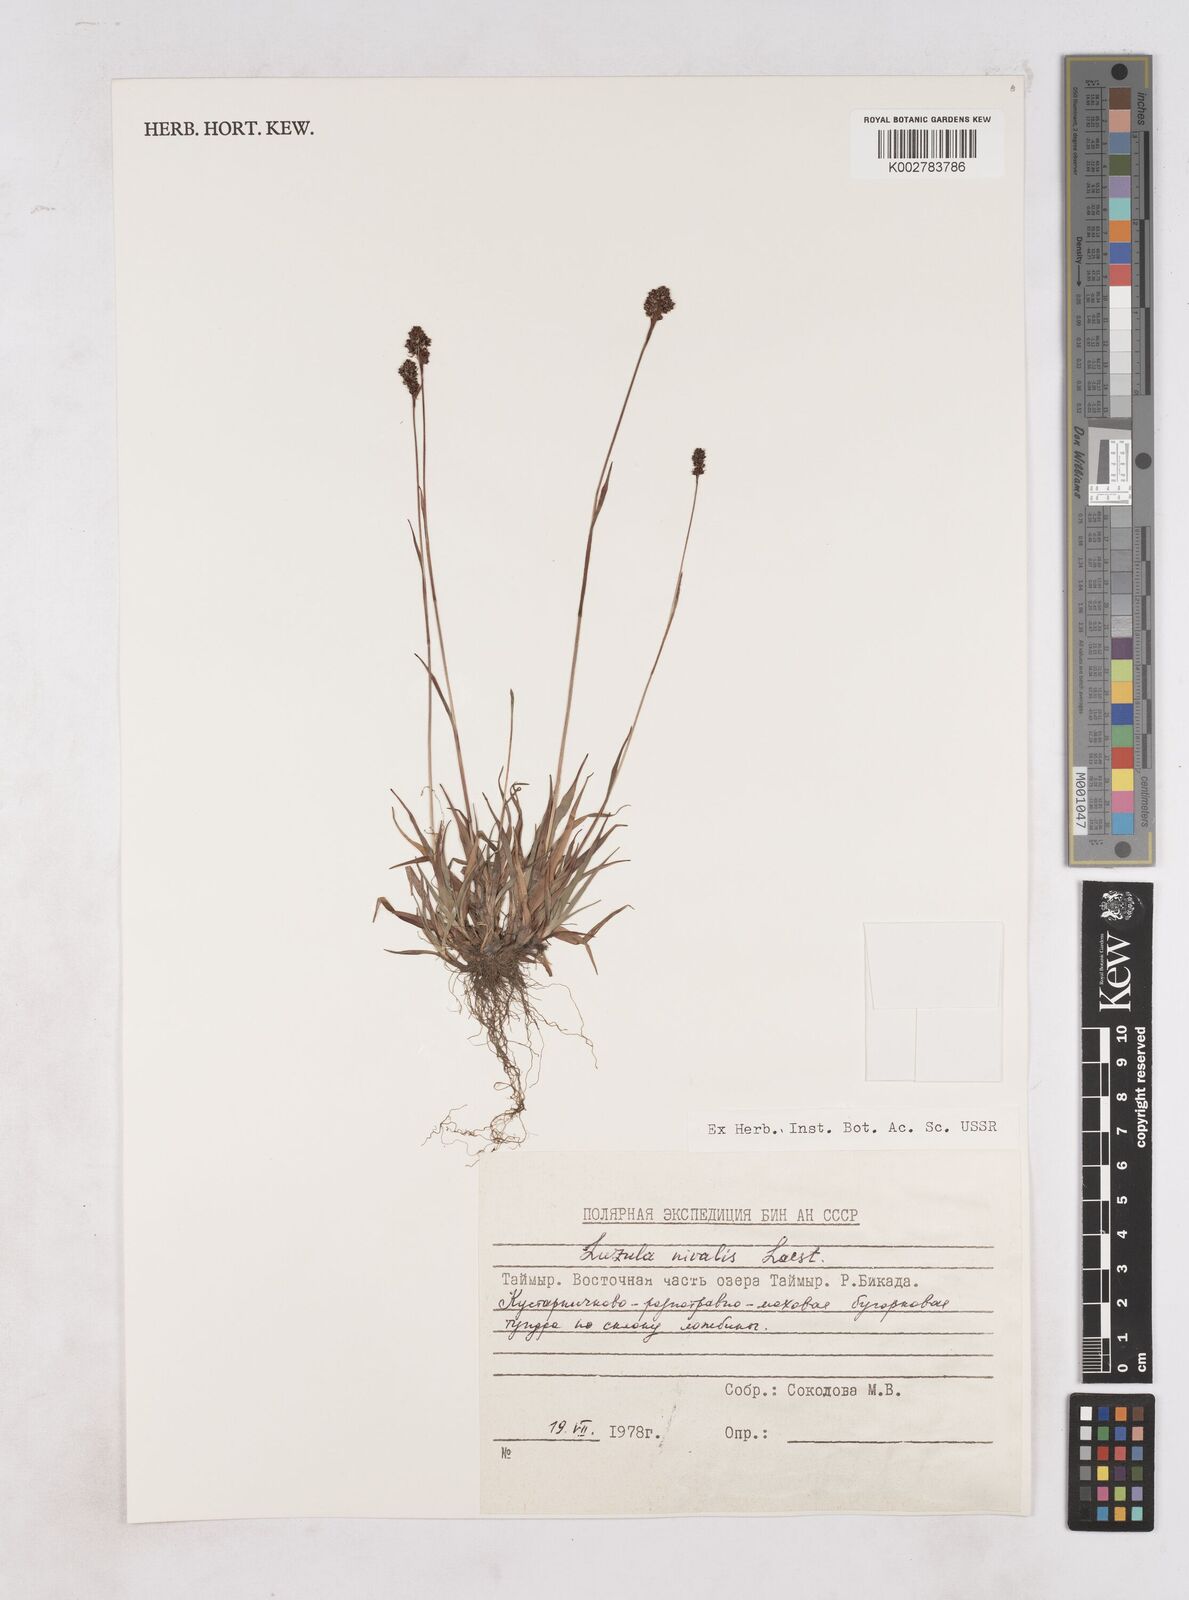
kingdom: Plantae
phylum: Tracheophyta
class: Liliopsida
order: Poales
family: Juncaceae
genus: Luzula
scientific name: Luzula nivalis
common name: Arctic woodrush
